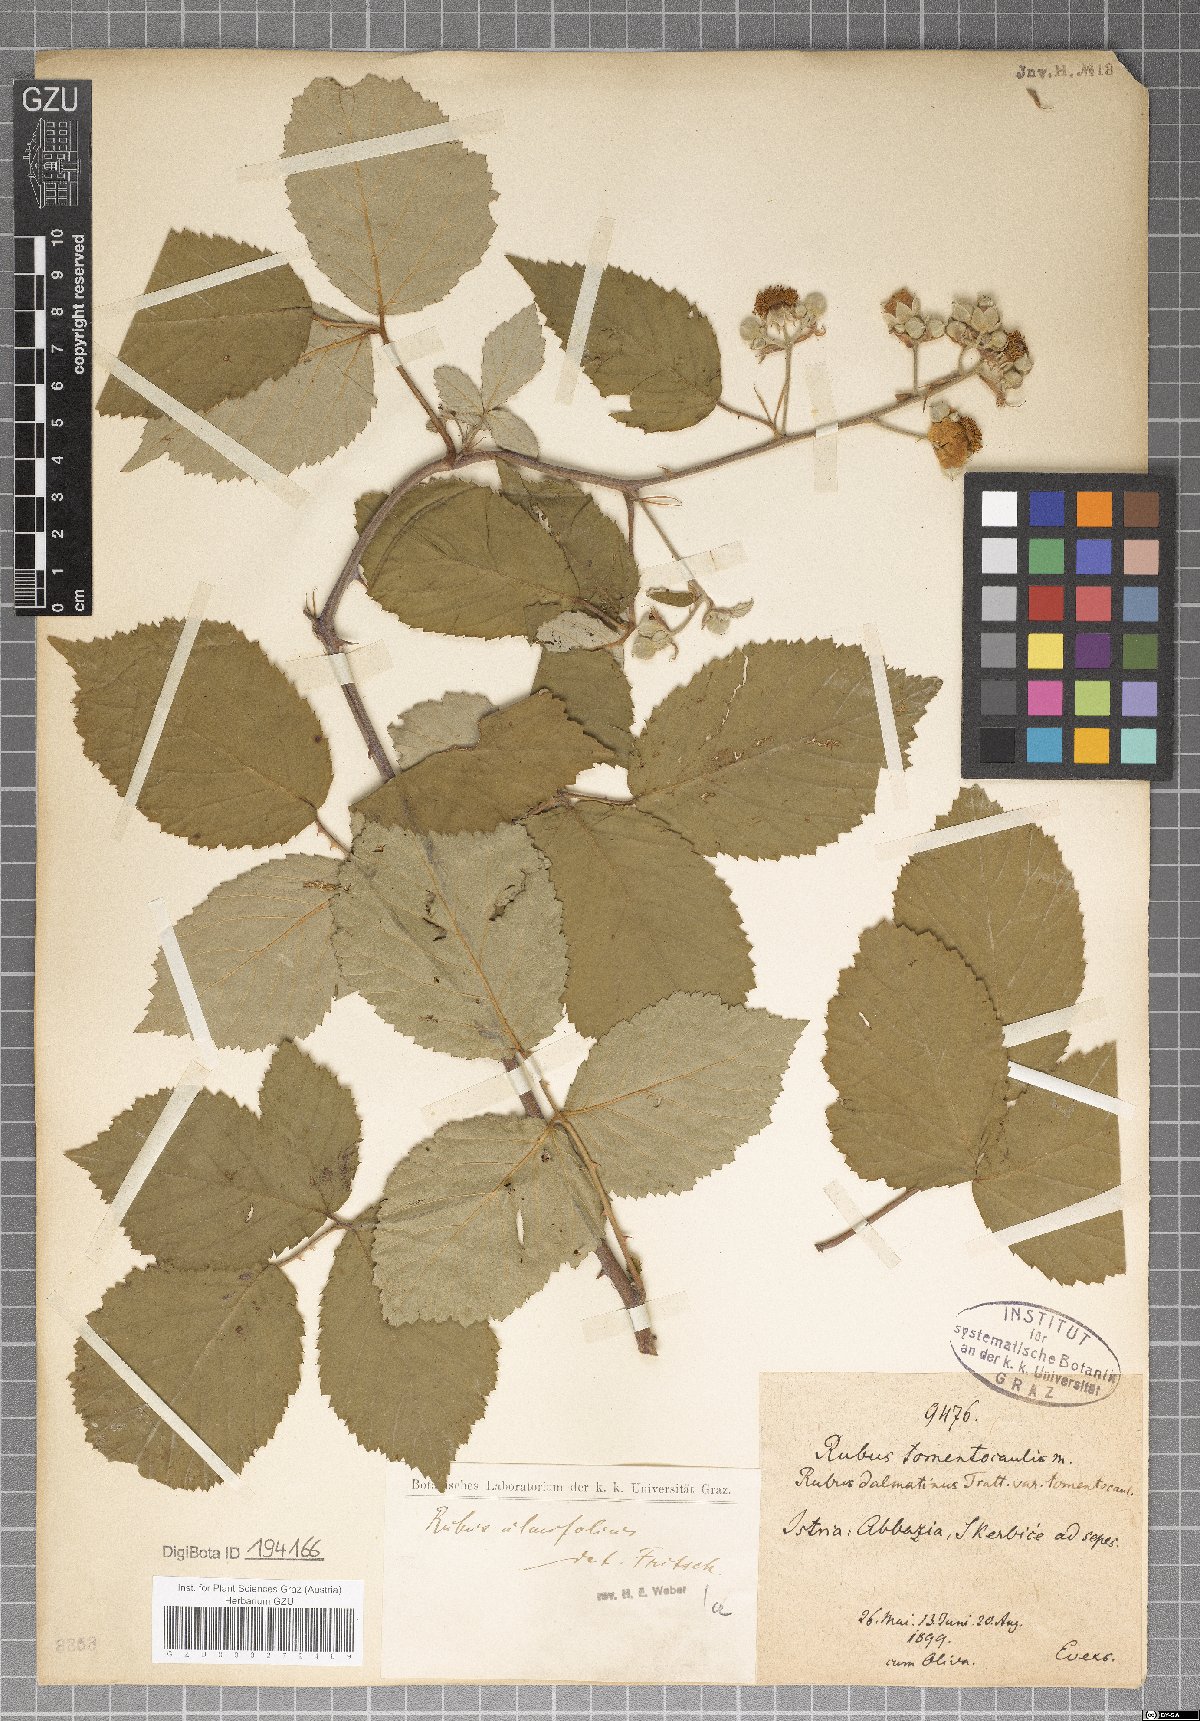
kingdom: Plantae
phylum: Tracheophyta
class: Magnoliopsida
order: Rosales
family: Rosaceae
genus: Rubus
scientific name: Rubus tomentocaulis
